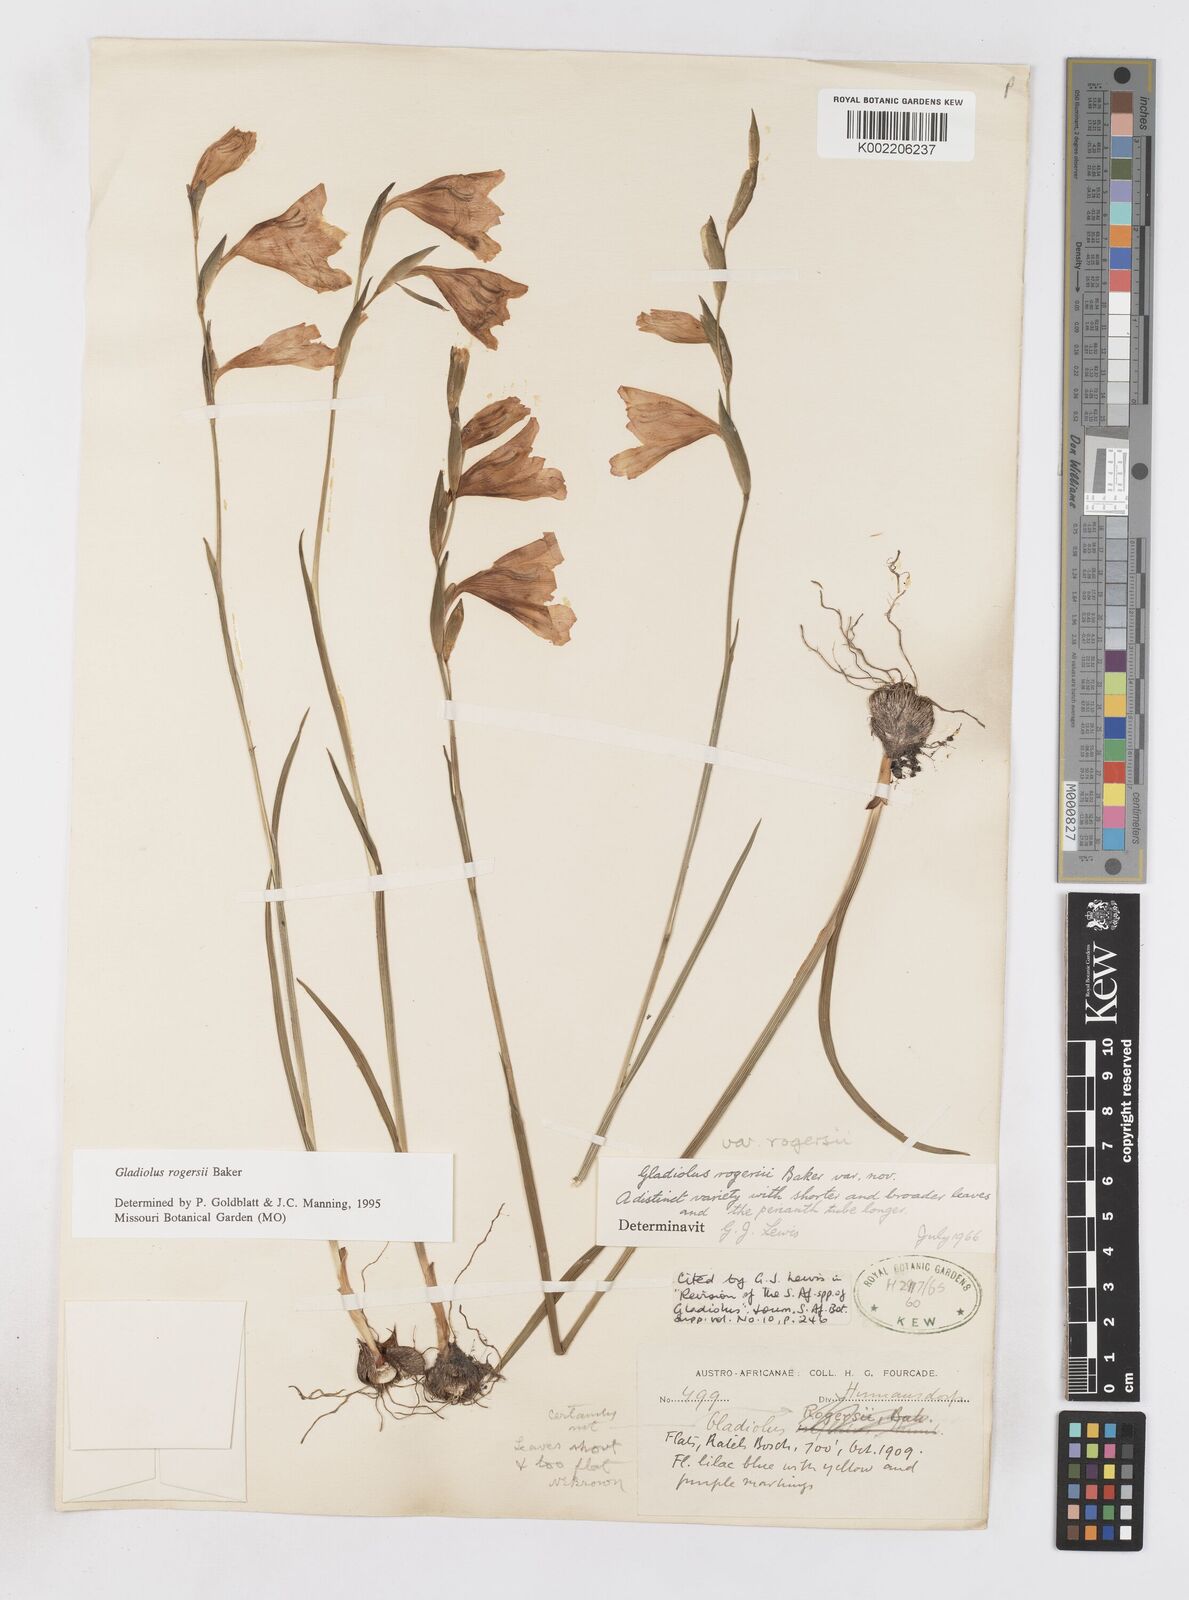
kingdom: Plantae
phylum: Tracheophyta
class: Liliopsida
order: Asparagales
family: Iridaceae
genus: Gladiolus
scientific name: Gladiolus rogersii
